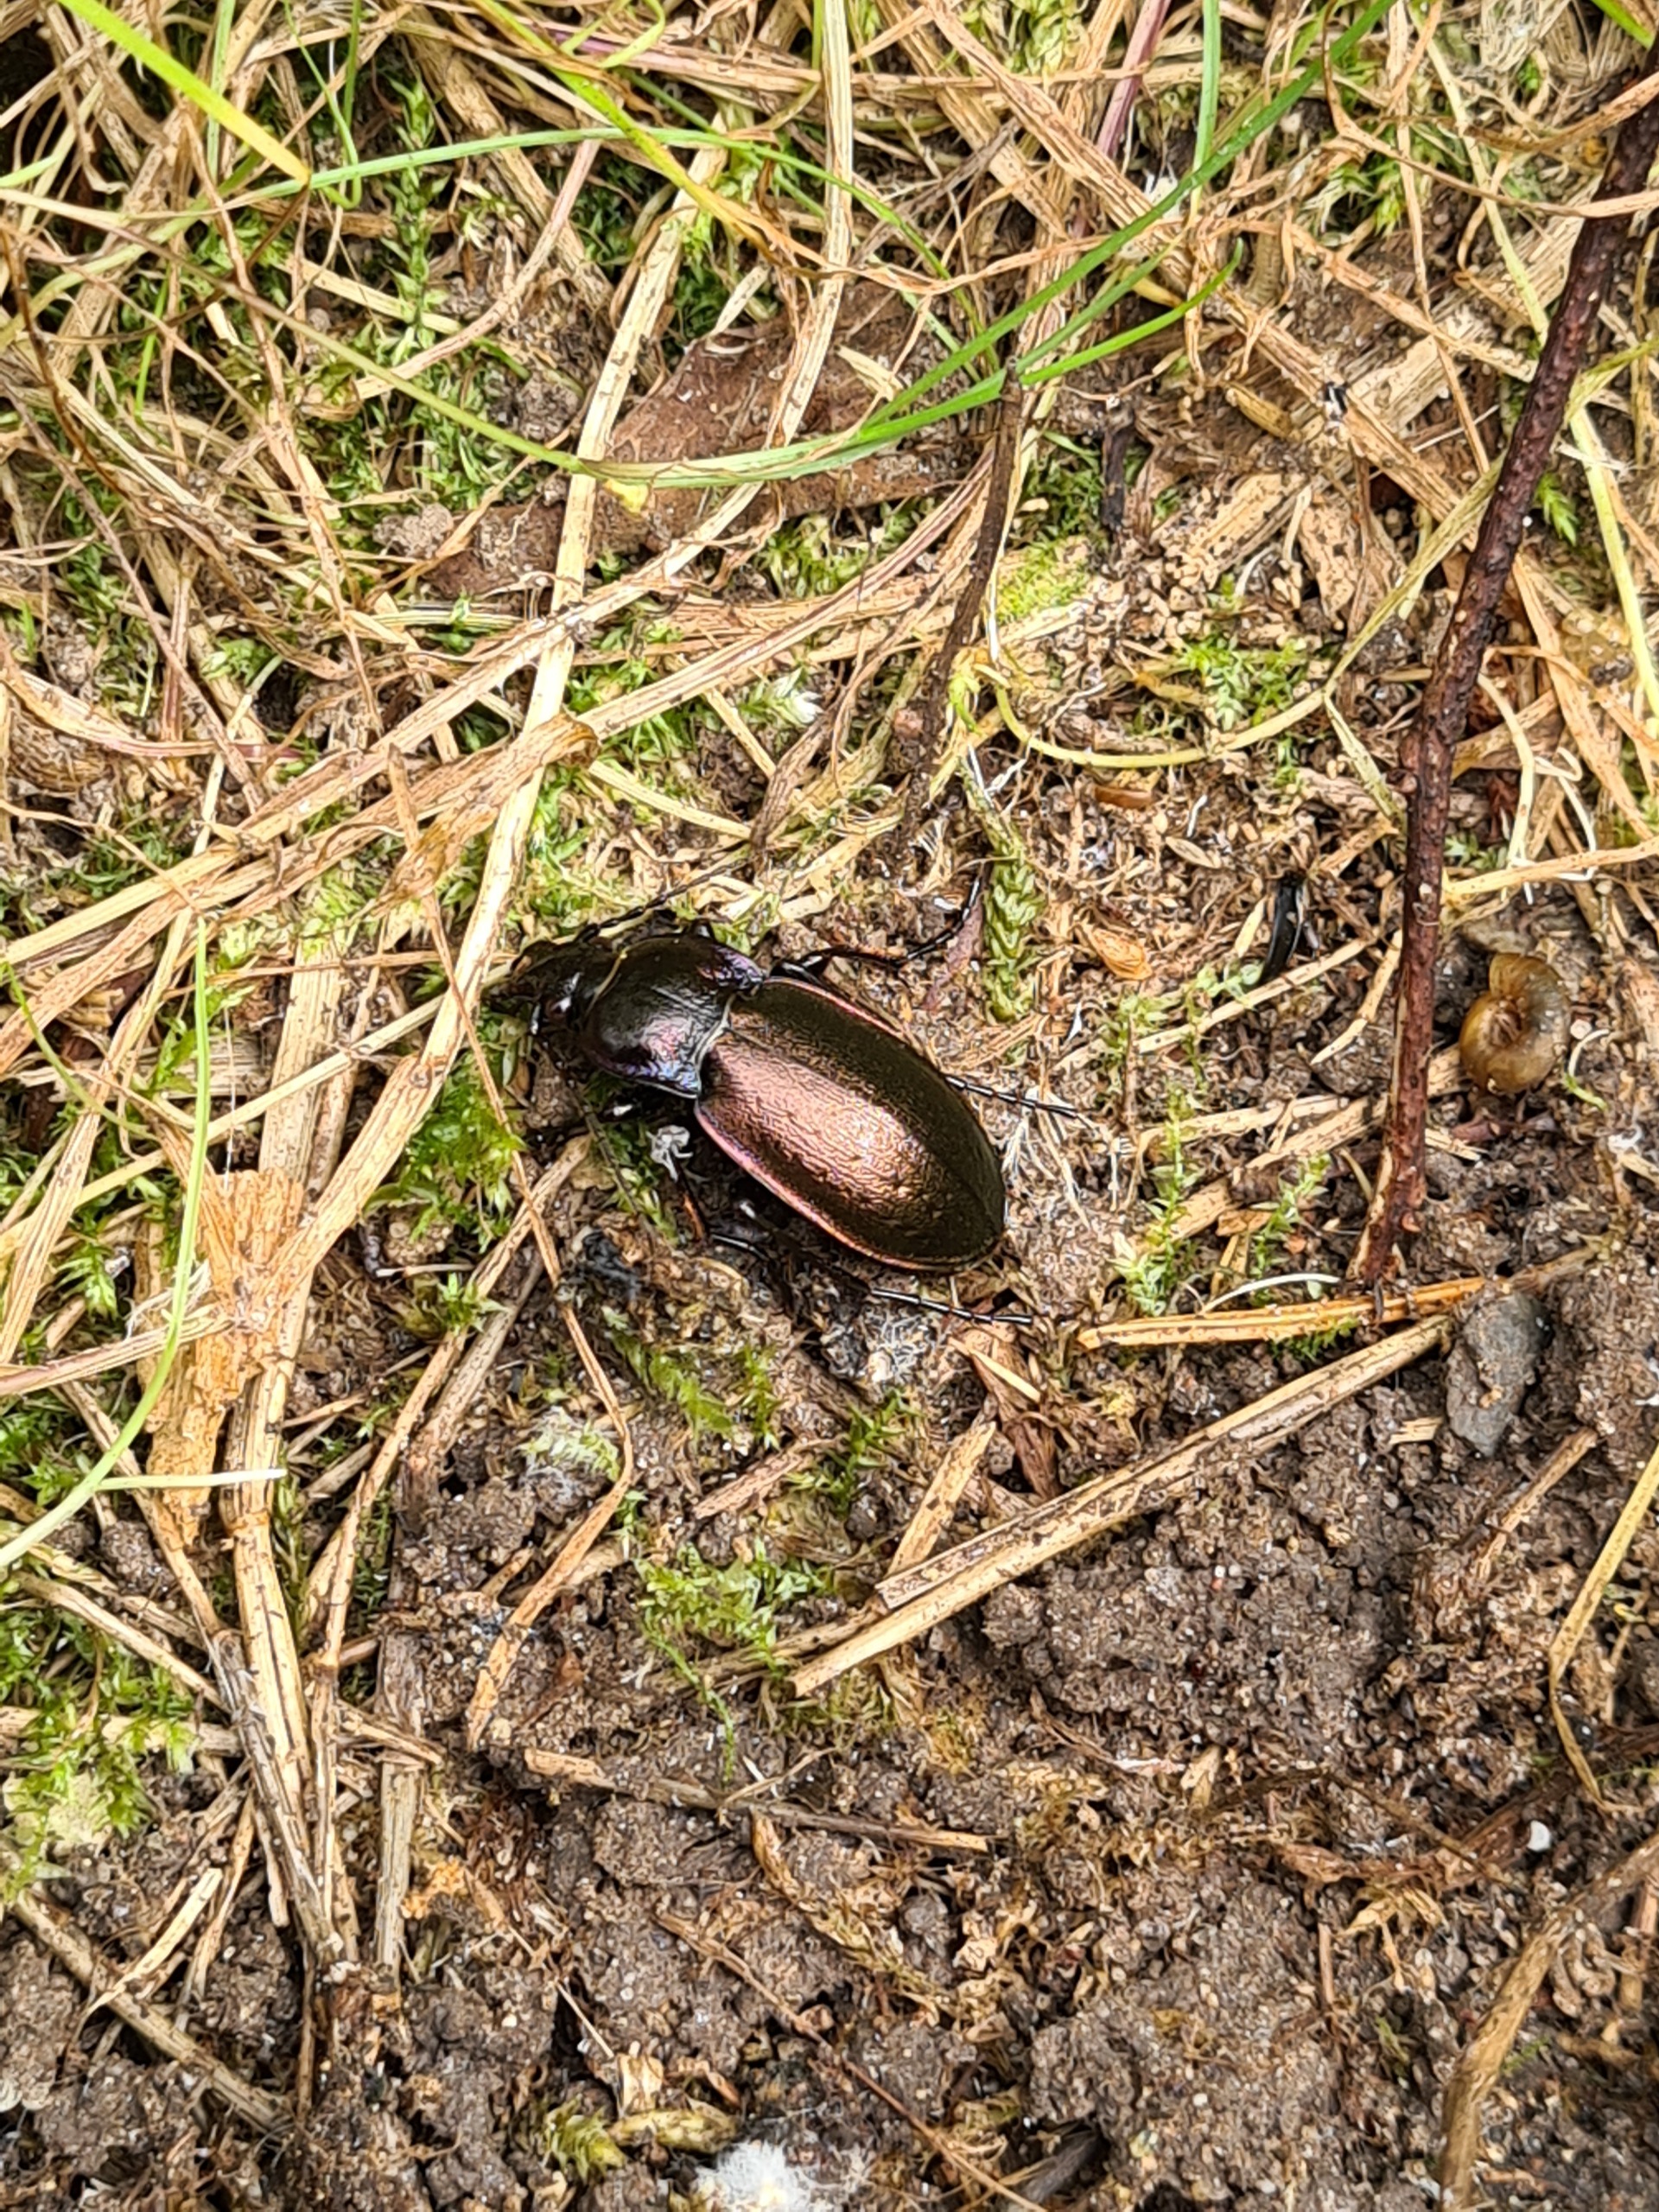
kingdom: Animalia
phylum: Arthropoda
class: Insecta
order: Coleoptera
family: Carabidae
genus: Carabus
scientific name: Carabus nemoralis
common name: Kratløber
